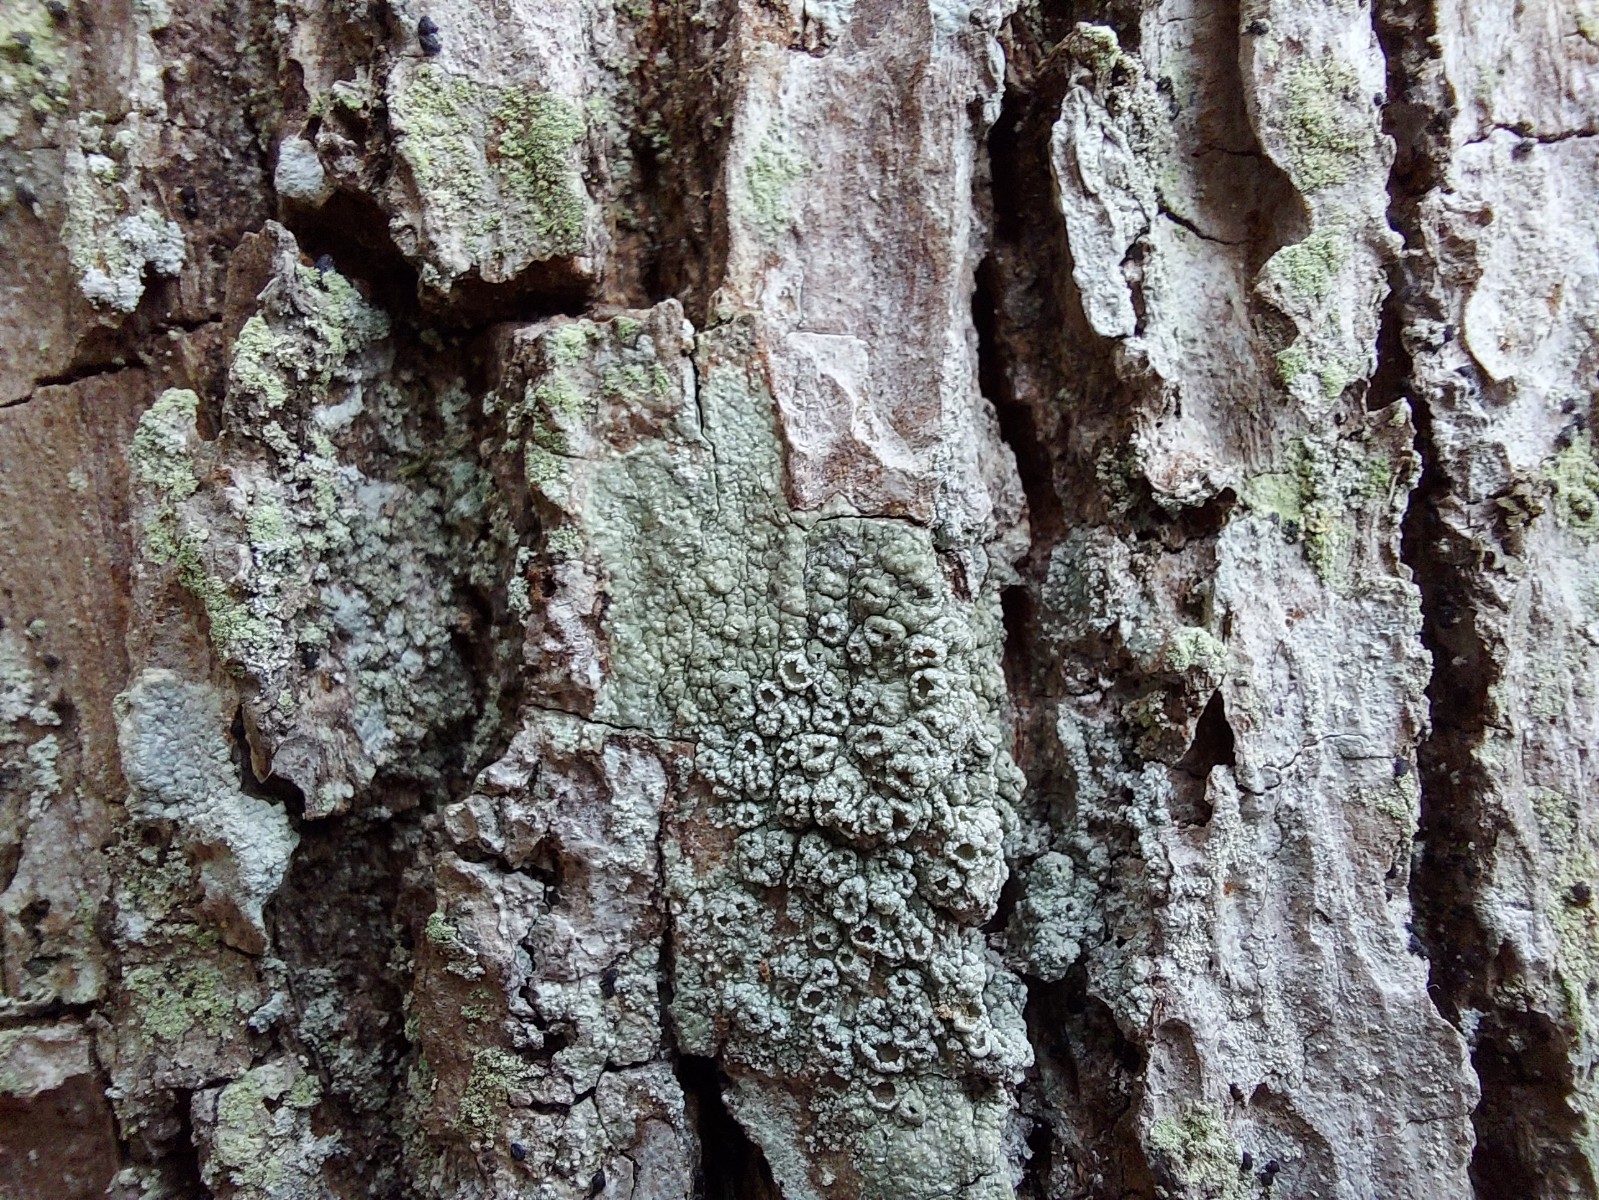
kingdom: Fungi
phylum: Ascomycota
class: Lecanoromycetes
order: Pertusariales
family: Pertusariaceae
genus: Pertusaria
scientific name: Pertusaria hymenea
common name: åben prikvortelav
